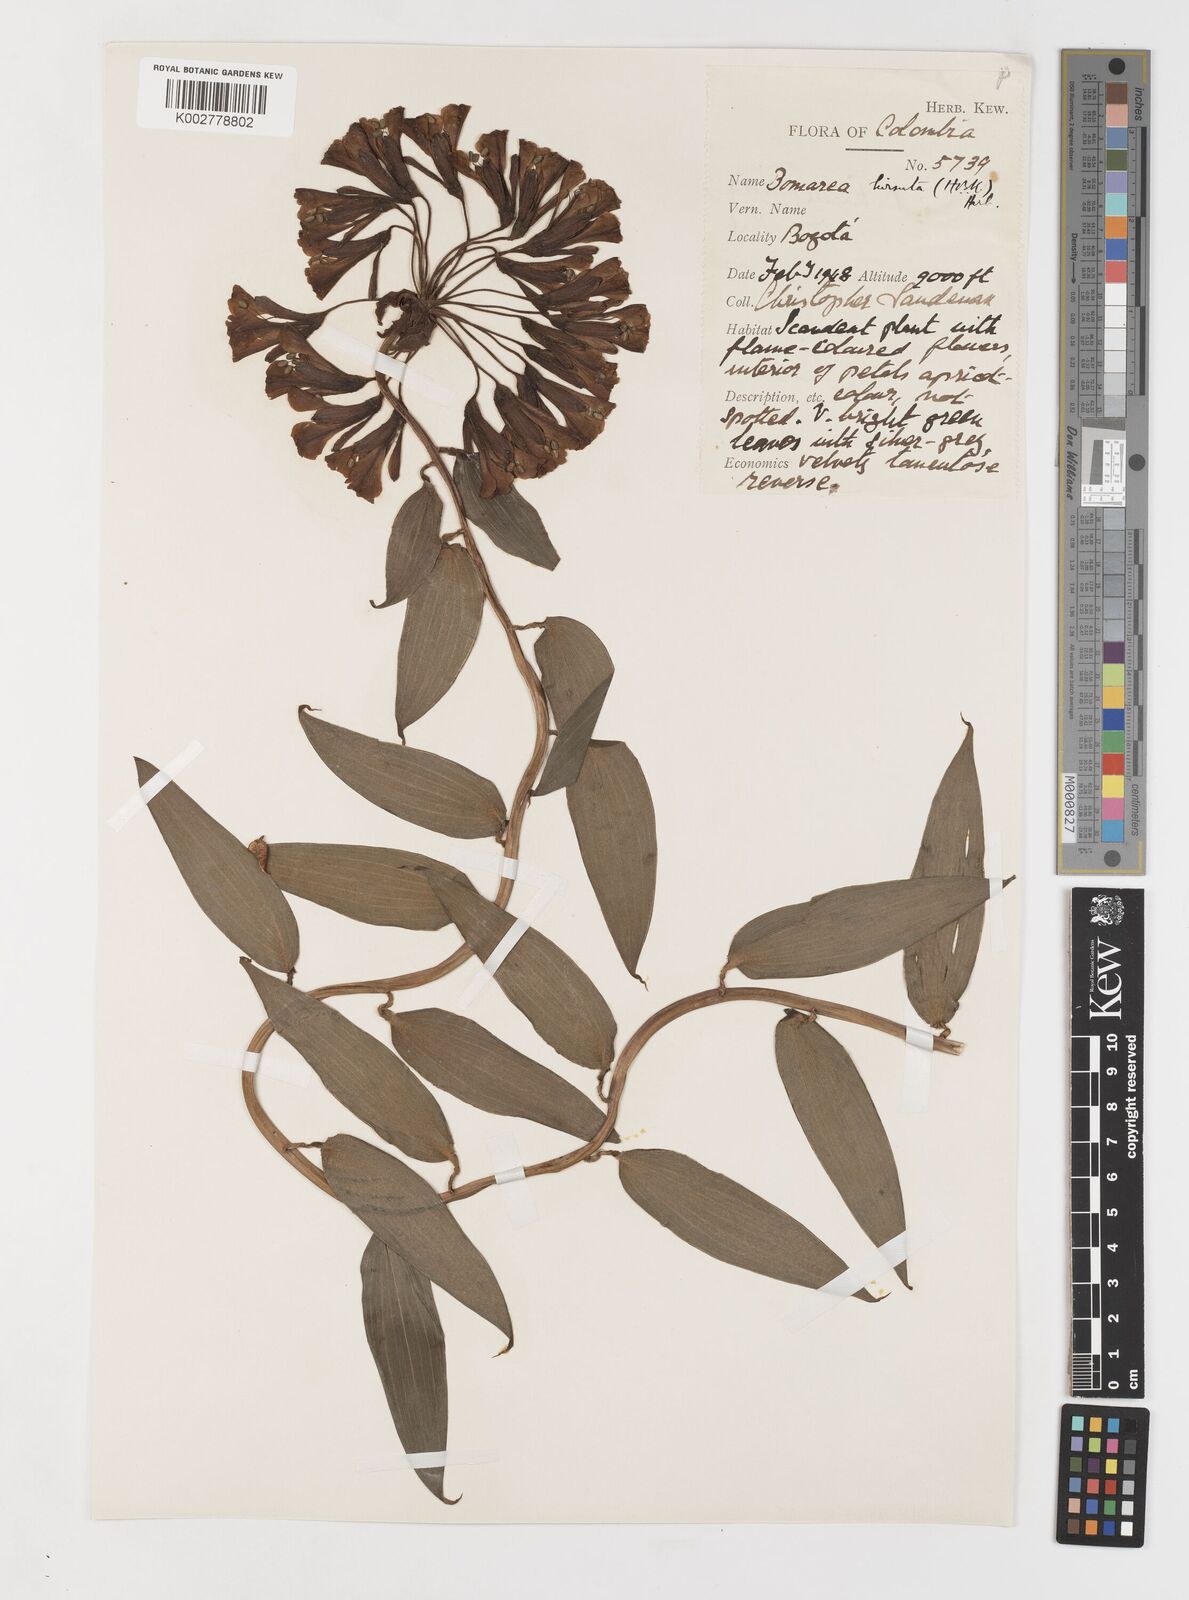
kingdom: Plantae
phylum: Tracheophyta
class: Liliopsida
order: Liliales
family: Alstroemeriaceae
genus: Bomarea
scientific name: Bomarea hirsuta
